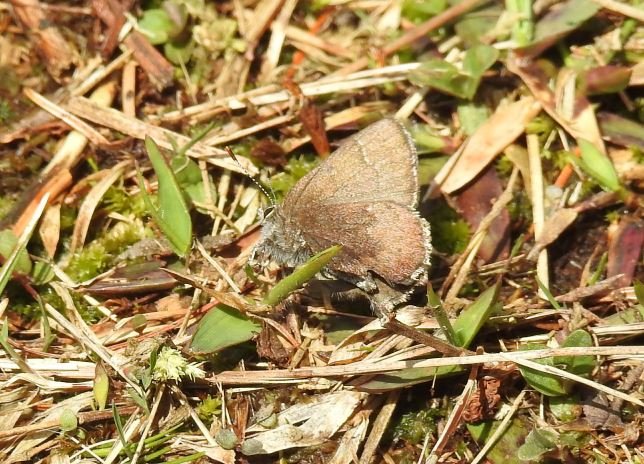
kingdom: Animalia
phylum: Arthropoda
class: Insecta
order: Lepidoptera
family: Lycaenidae
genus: Incisalia
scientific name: Incisalia irioides
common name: Brown Elfin
